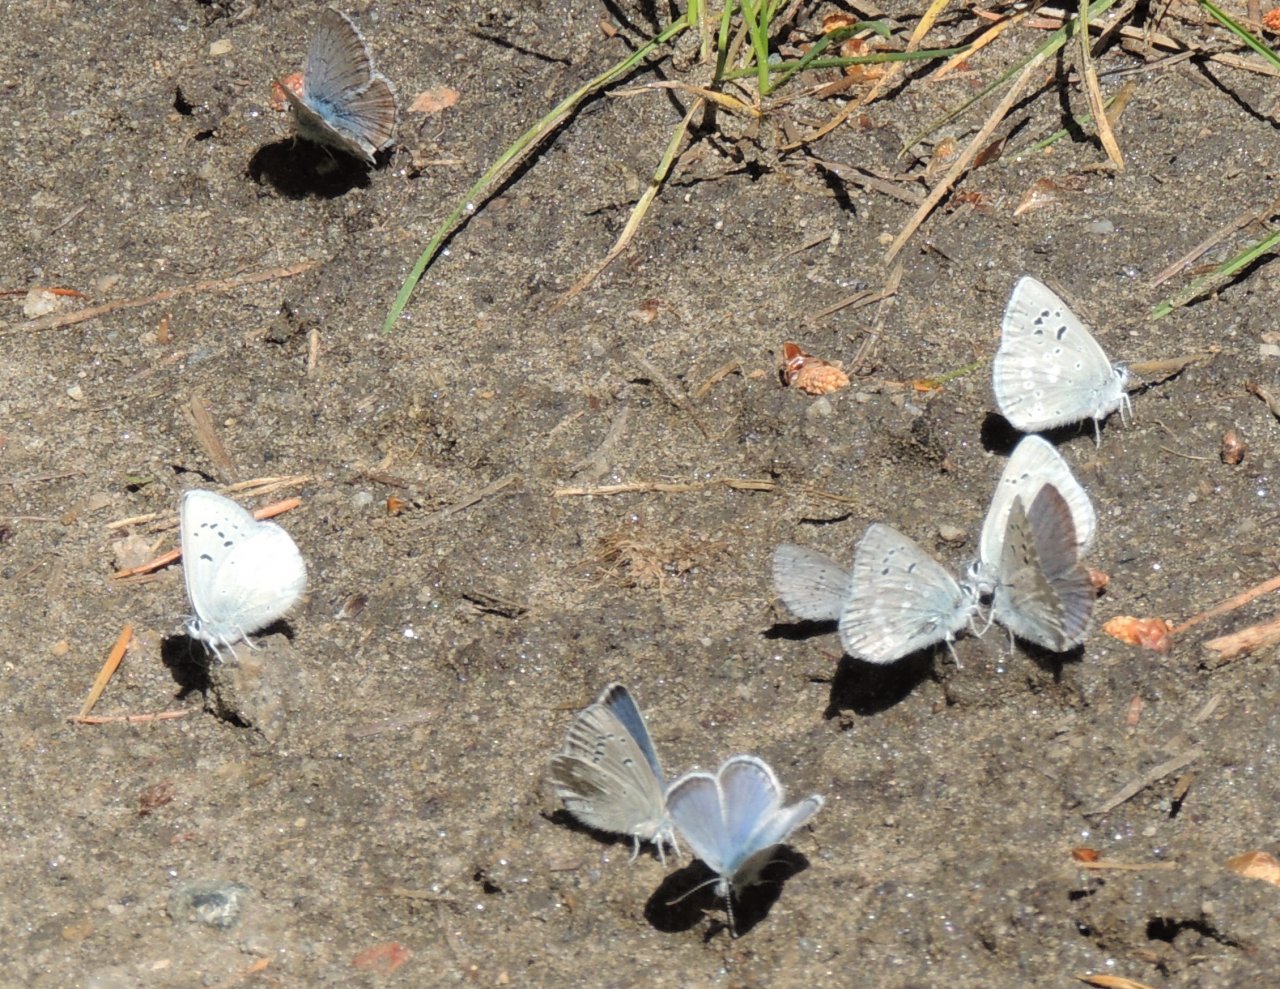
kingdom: Animalia
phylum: Arthropoda
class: Insecta
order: Lepidoptera
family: Lycaenidae
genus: Icaricia
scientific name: Icaricia icarioides
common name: Boisduval's Blue
